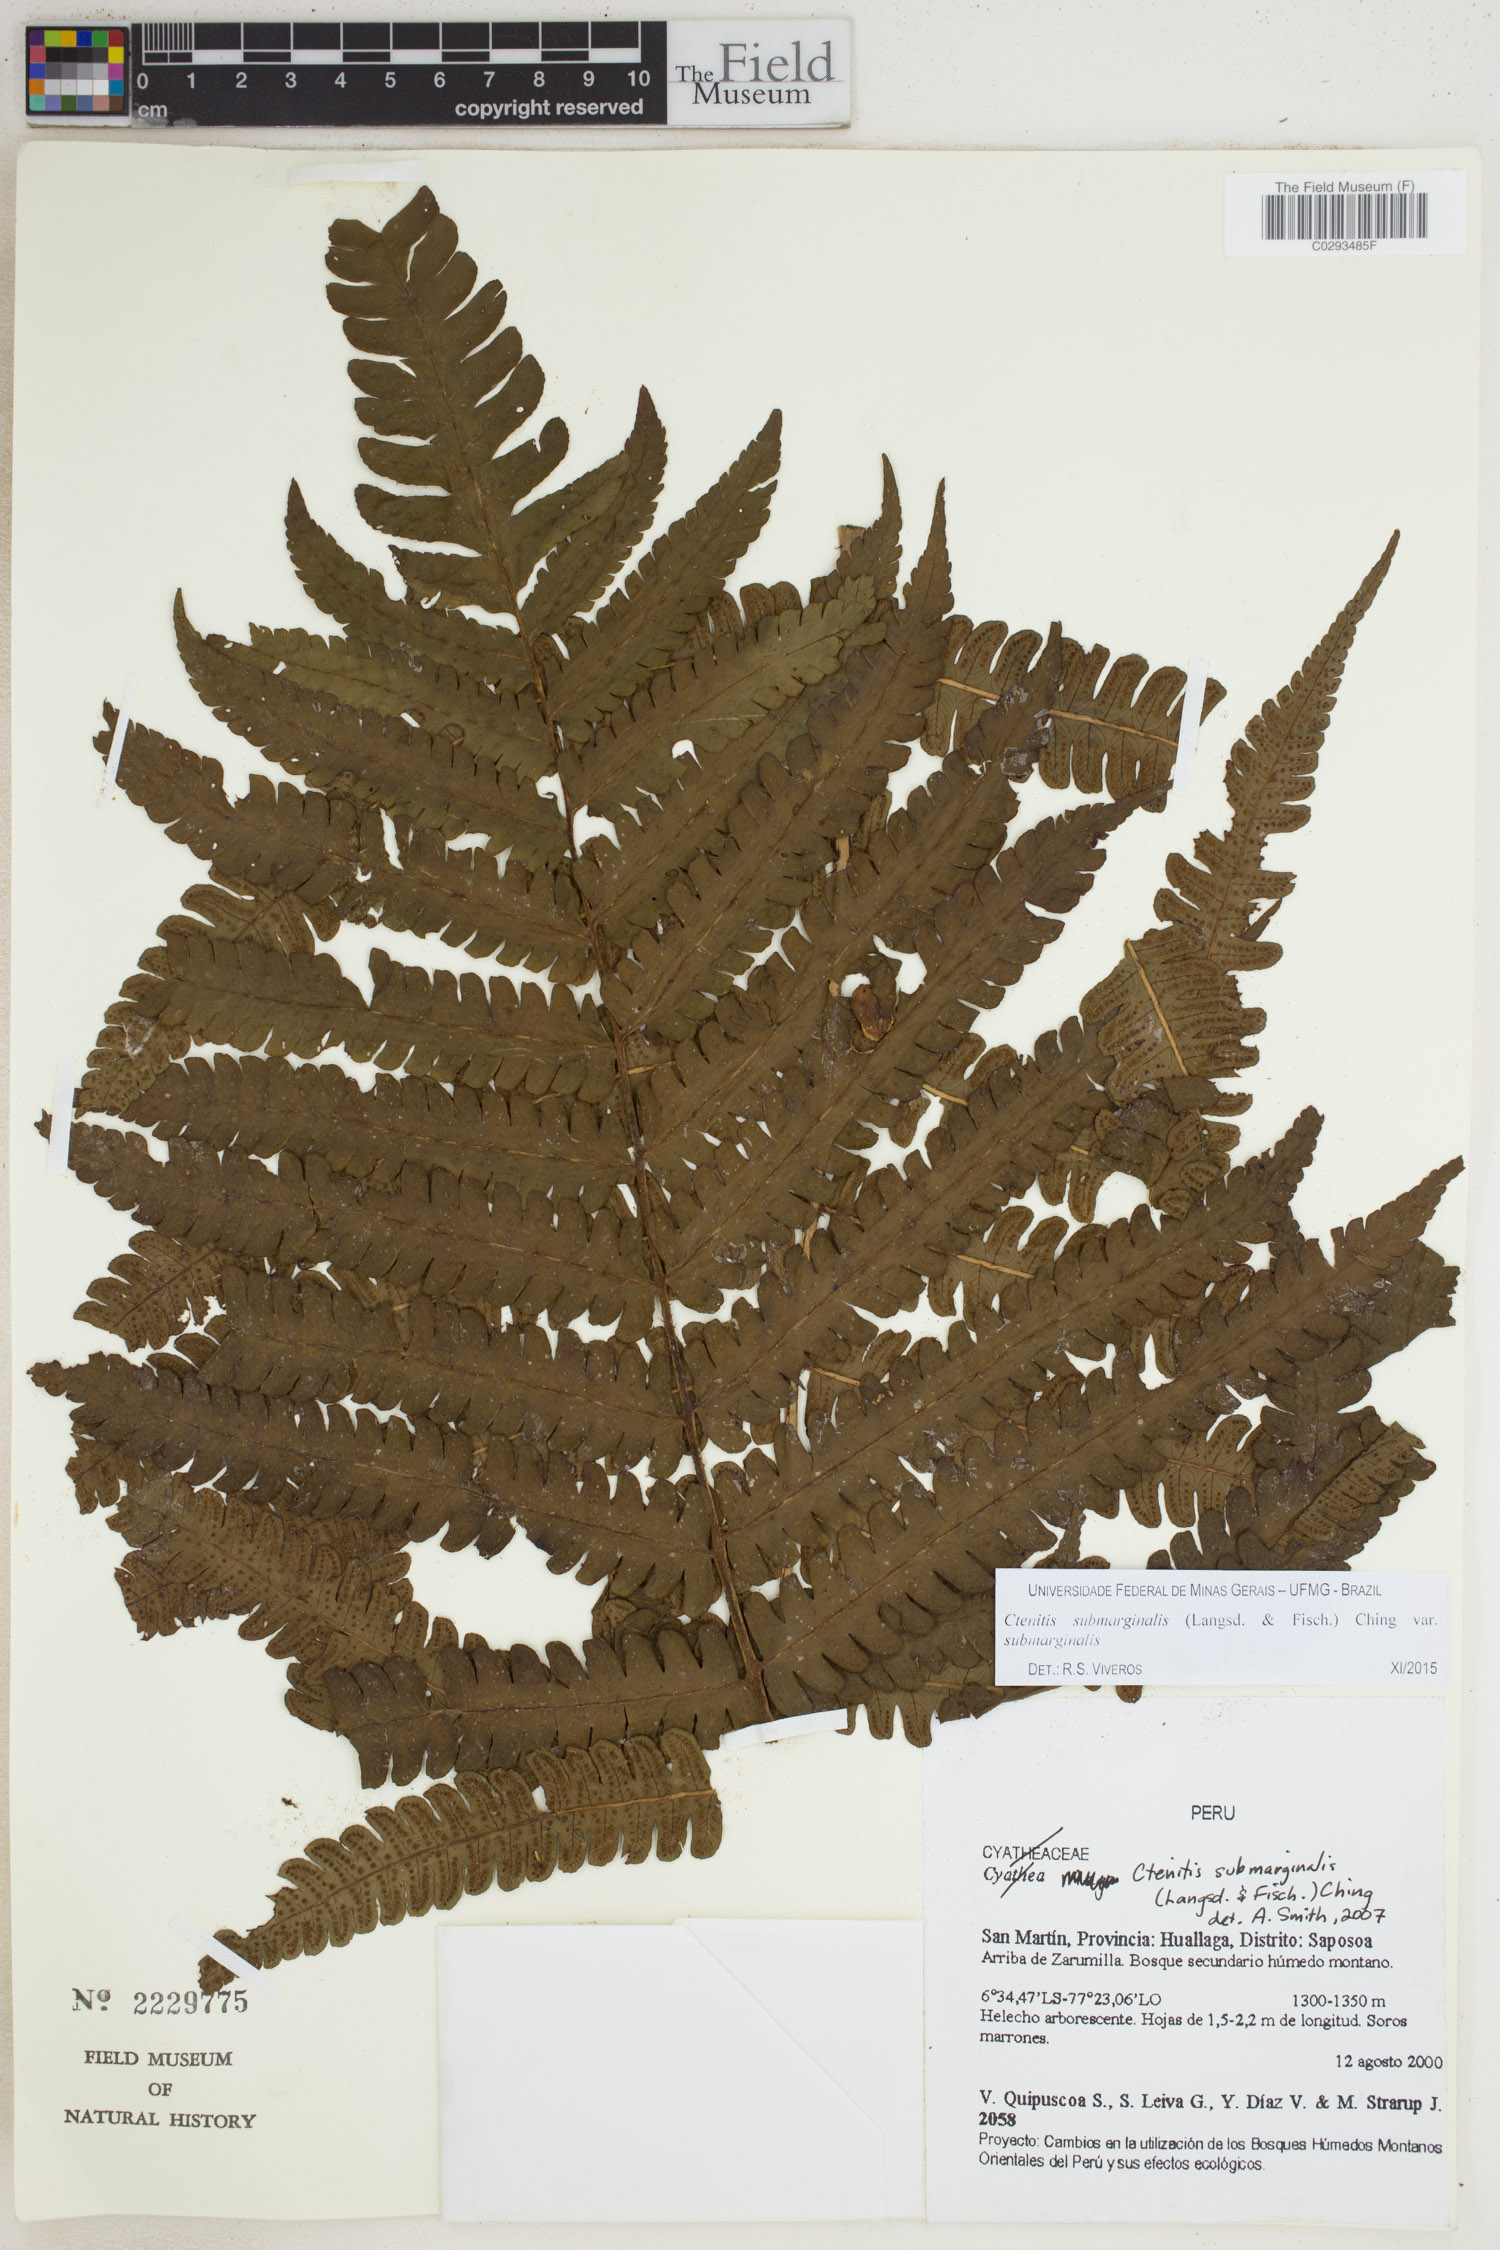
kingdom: Plantae
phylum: Tracheophyta
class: Polypodiopsida
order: Polypodiales
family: Dryopteridaceae
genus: Ctenitis
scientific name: Ctenitis submarginalis
